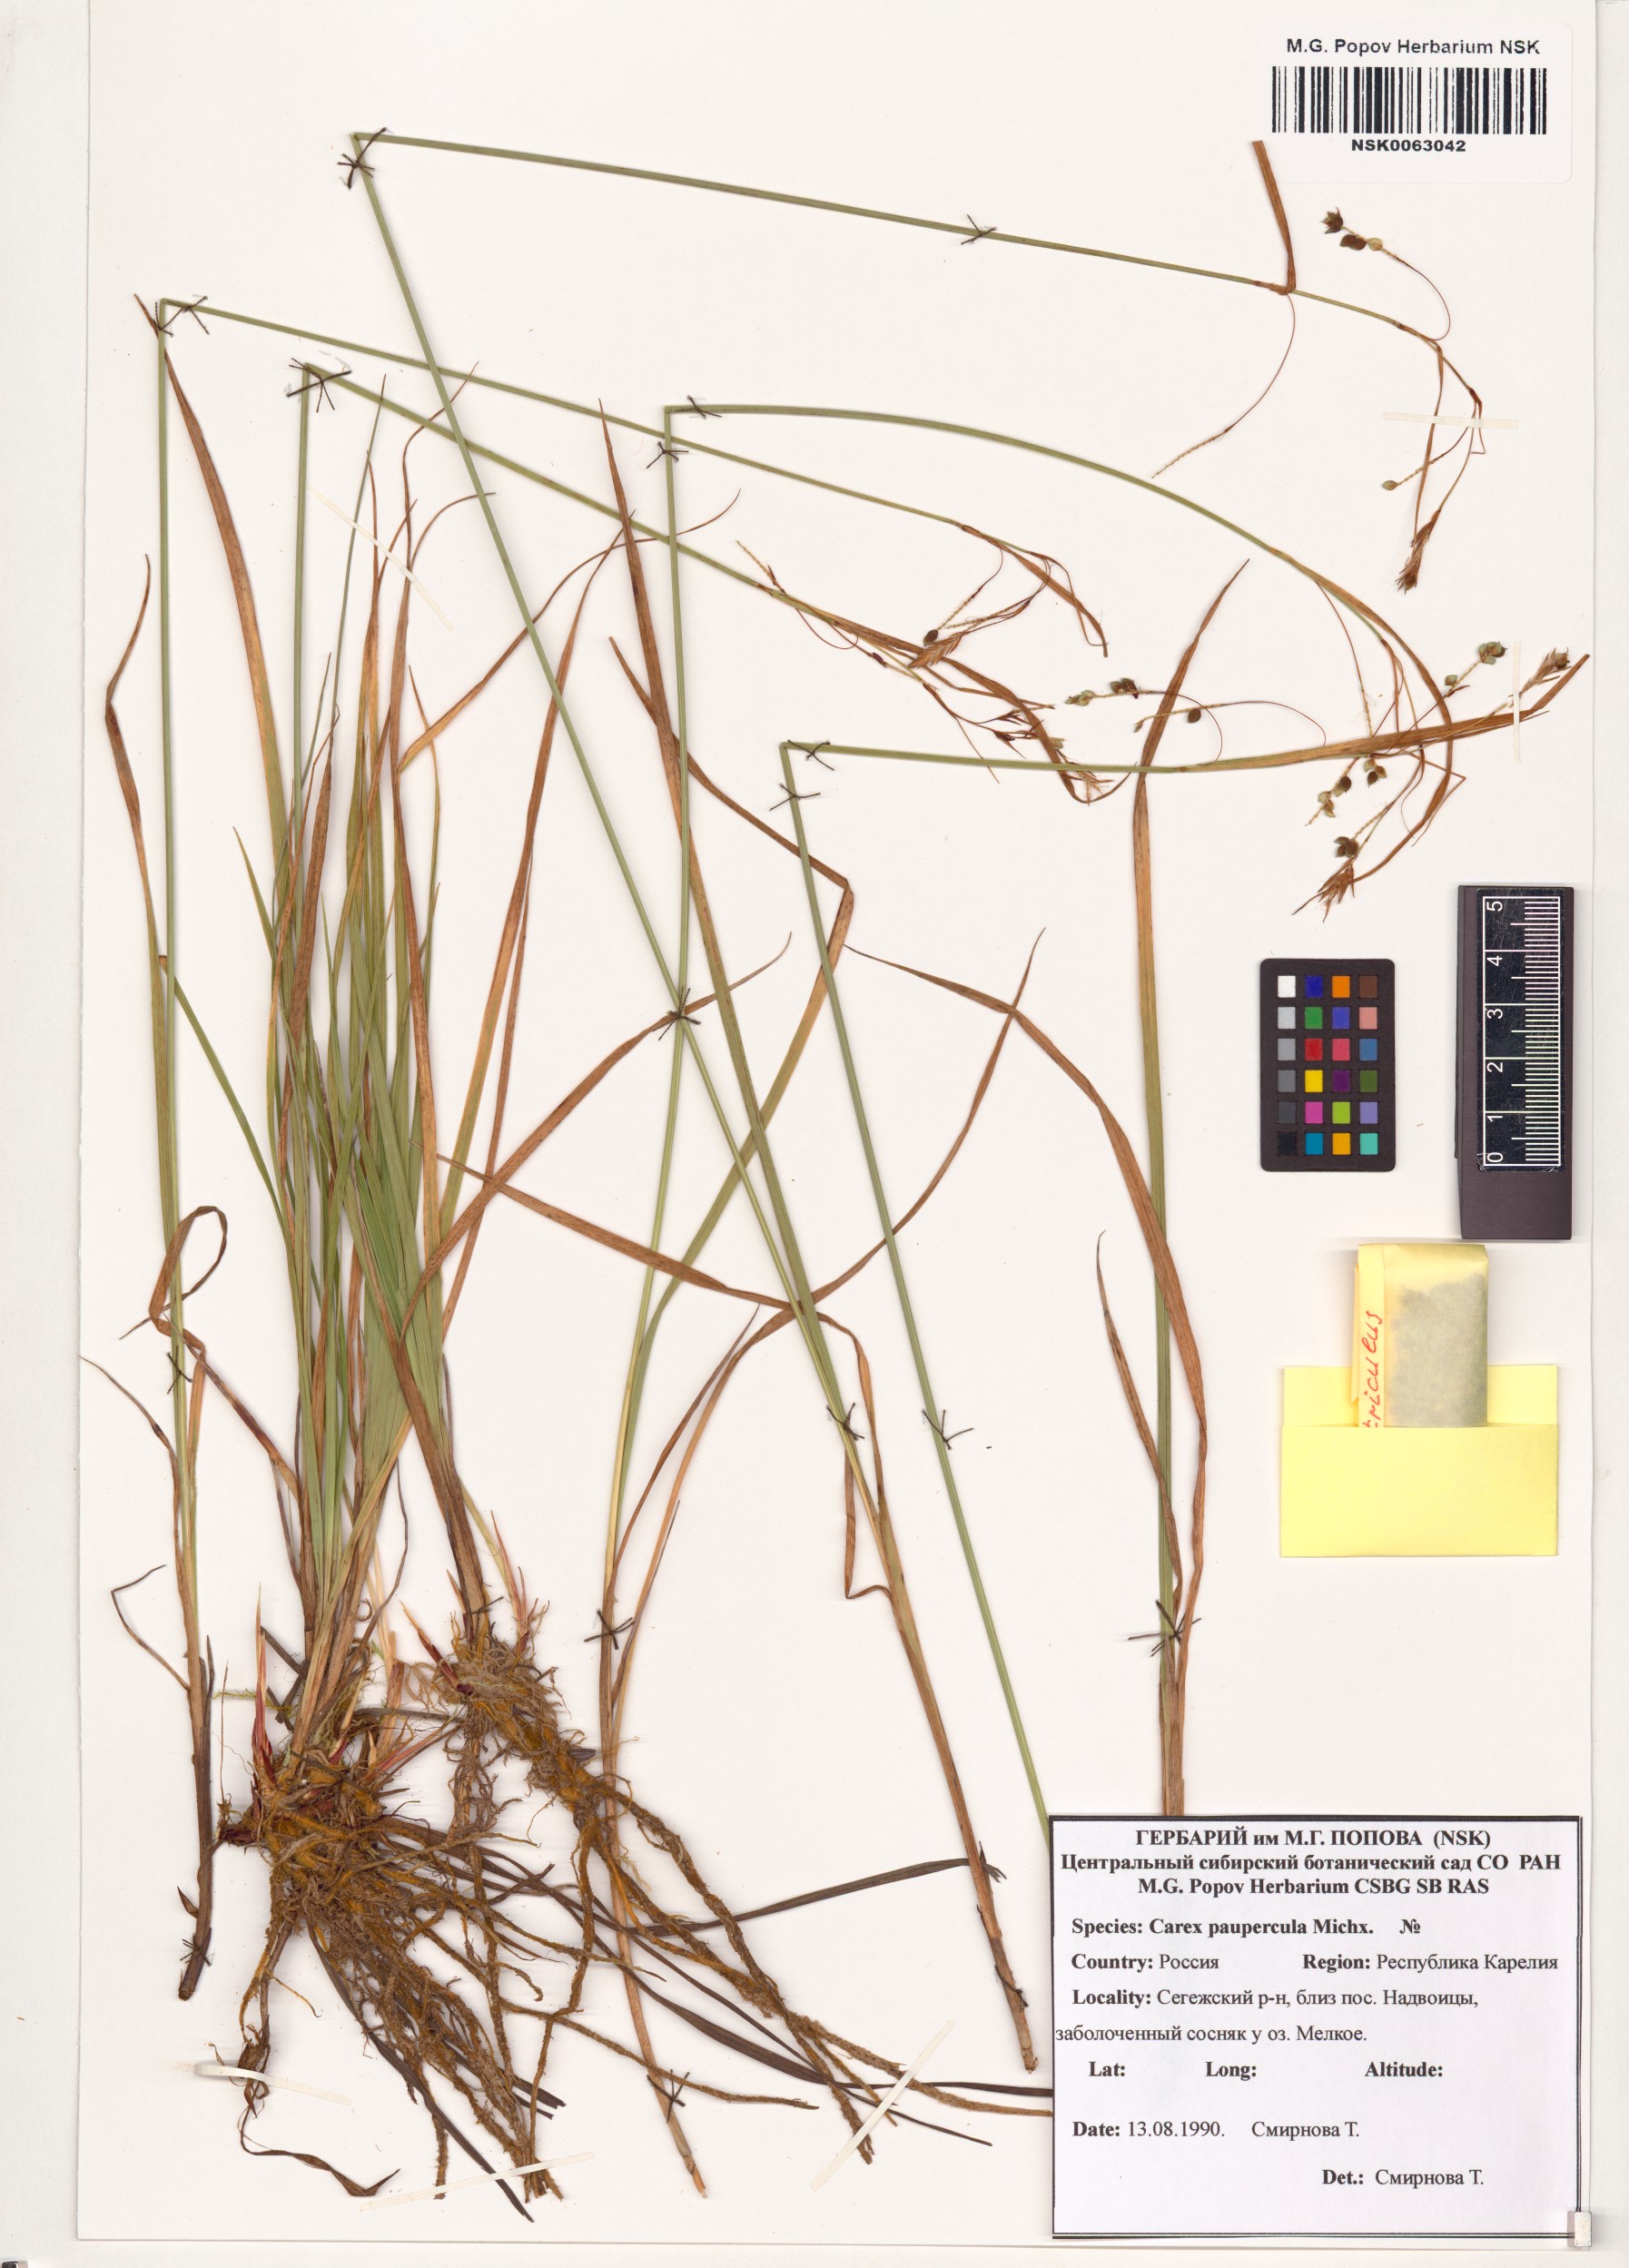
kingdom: Plantae
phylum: Tracheophyta
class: Liliopsida
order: Poales
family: Cyperaceae
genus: Carex
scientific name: Carex magellanica
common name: Bog sedge
